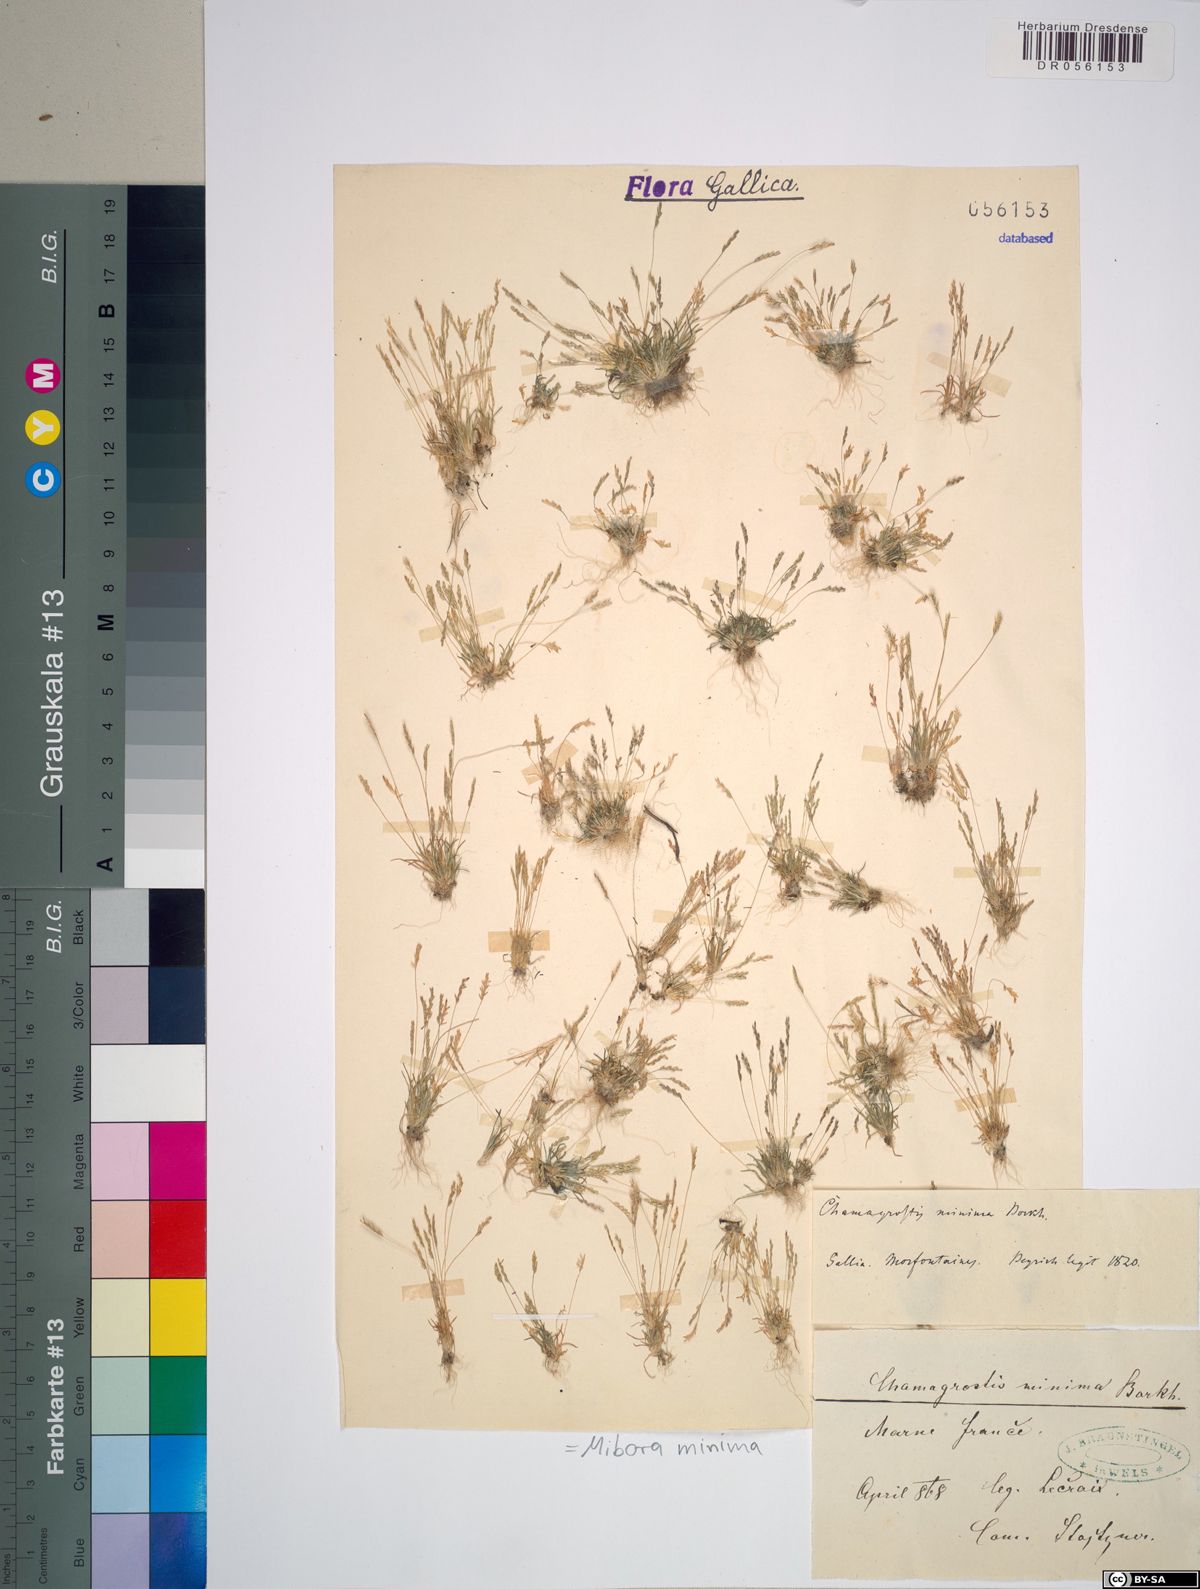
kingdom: Plantae
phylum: Tracheophyta
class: Liliopsida
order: Poales
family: Poaceae
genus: Mibora
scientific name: Mibora minima
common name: Early sand-grass
